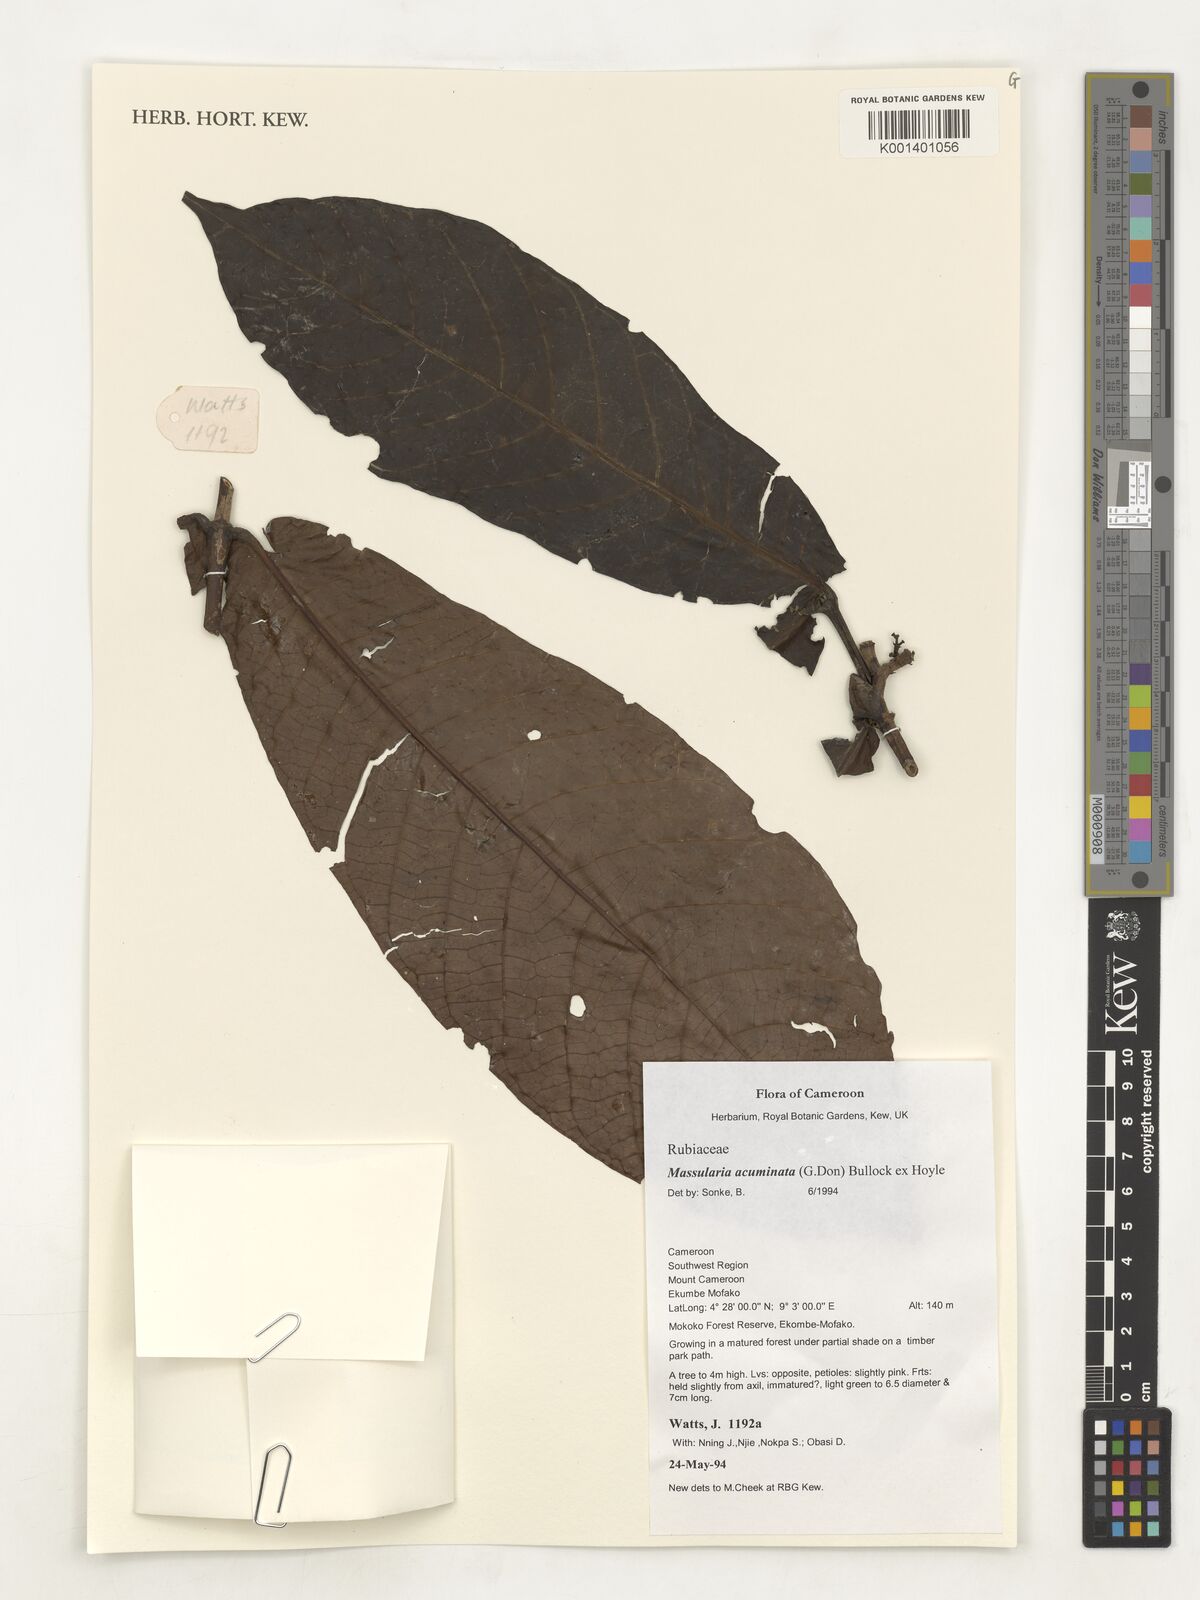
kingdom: Plantae
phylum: Tracheophyta
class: Magnoliopsida
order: Gentianales
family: Rubiaceae
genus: Massularia
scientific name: Massularia acuminata
